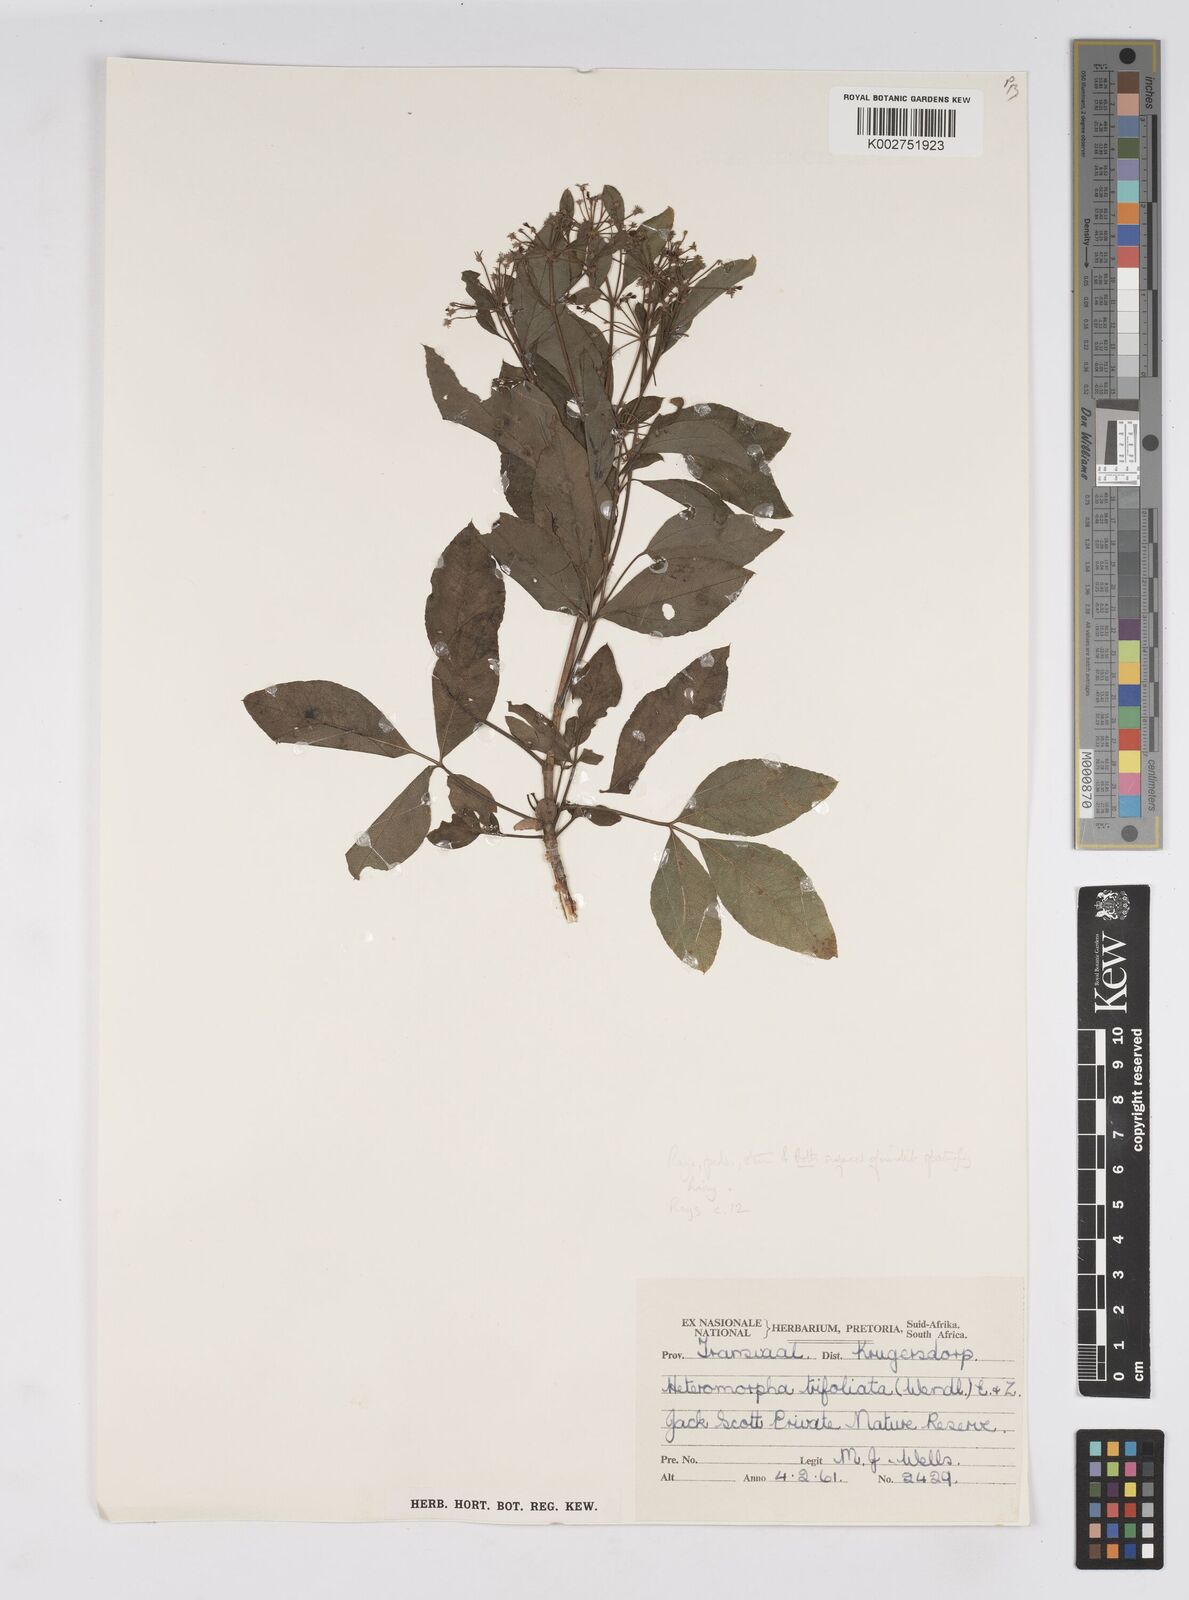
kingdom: Plantae
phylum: Tracheophyta
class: Magnoliopsida
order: Apiales
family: Apiaceae
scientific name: Apiaceae
